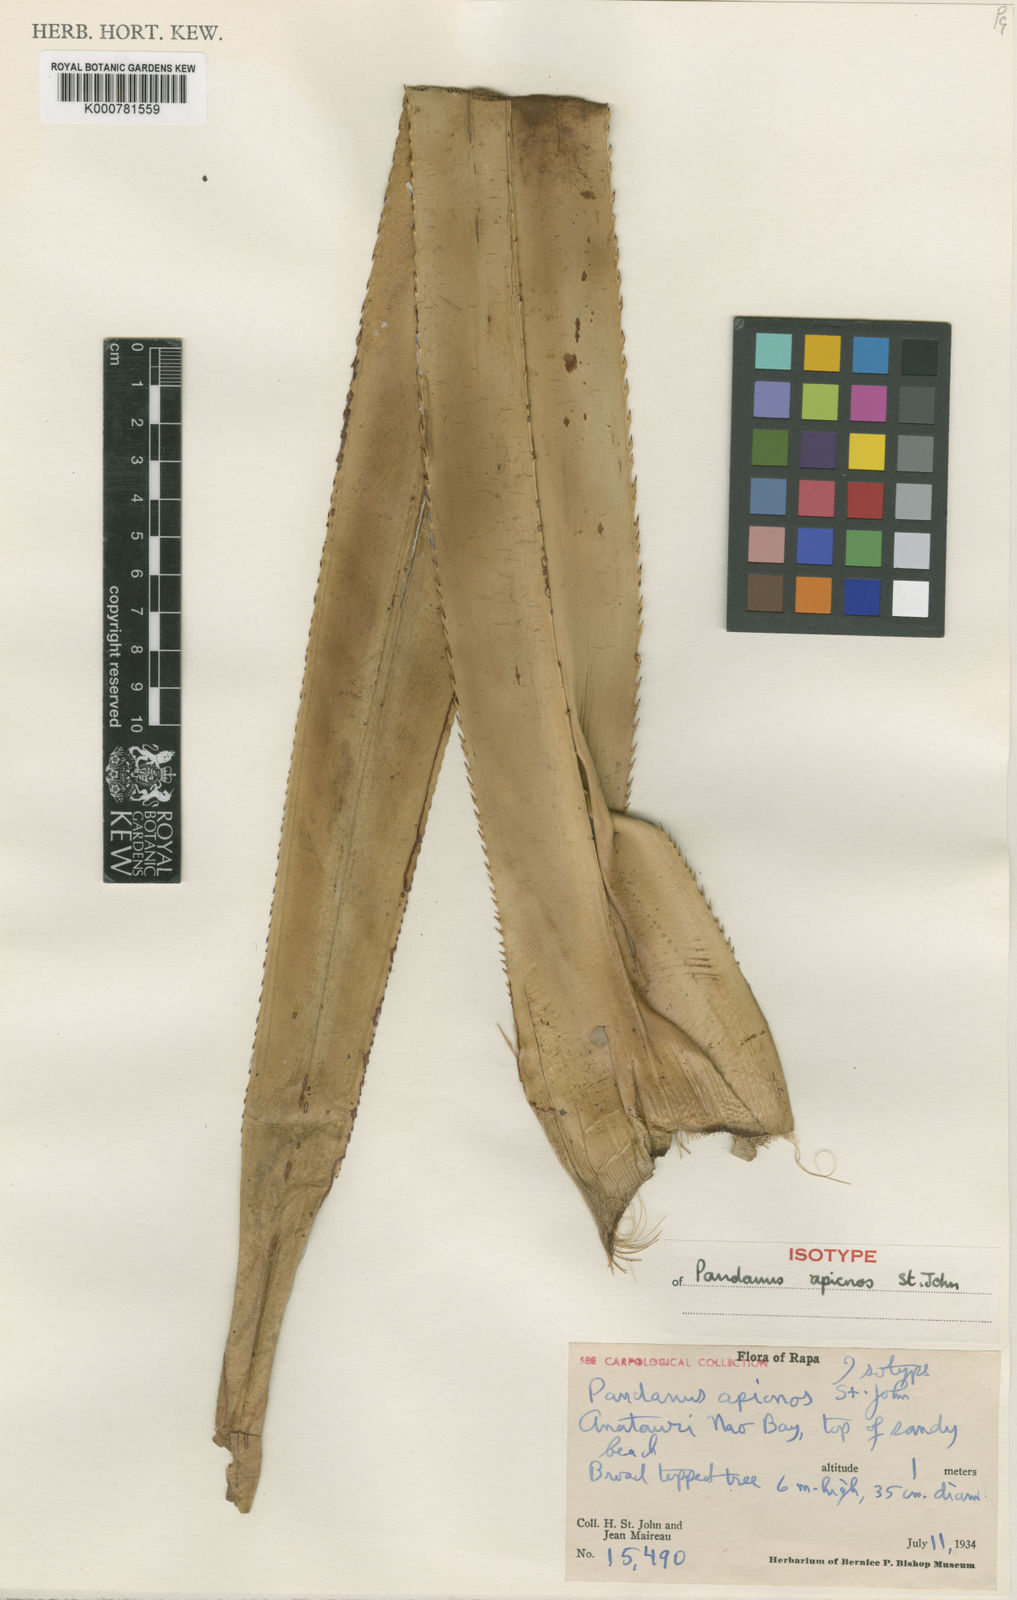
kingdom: Plantae
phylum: Tracheophyta
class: Liliopsida
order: Pandanales
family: Pandanaceae
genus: Pandanus
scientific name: Pandanus
